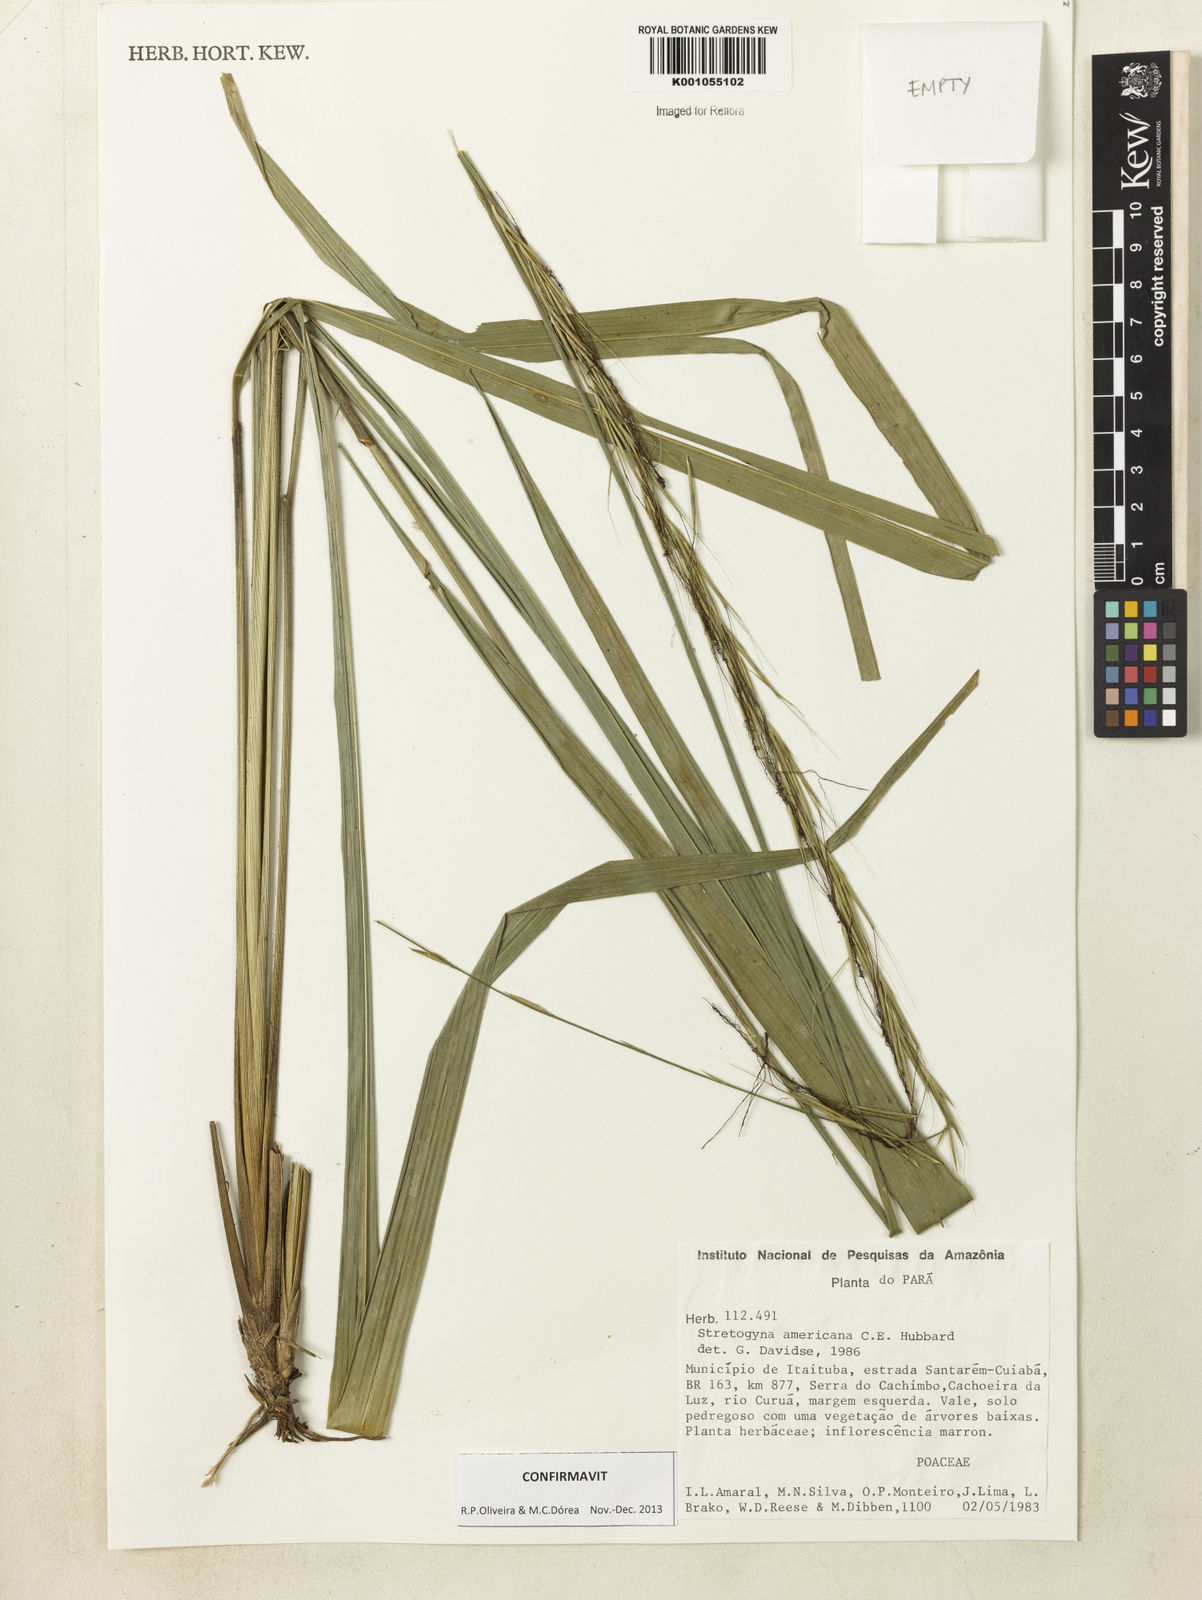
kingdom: Plantae
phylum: Tracheophyta
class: Liliopsida
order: Poales
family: Poaceae
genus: Streptogyna
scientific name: Streptogyna americana
